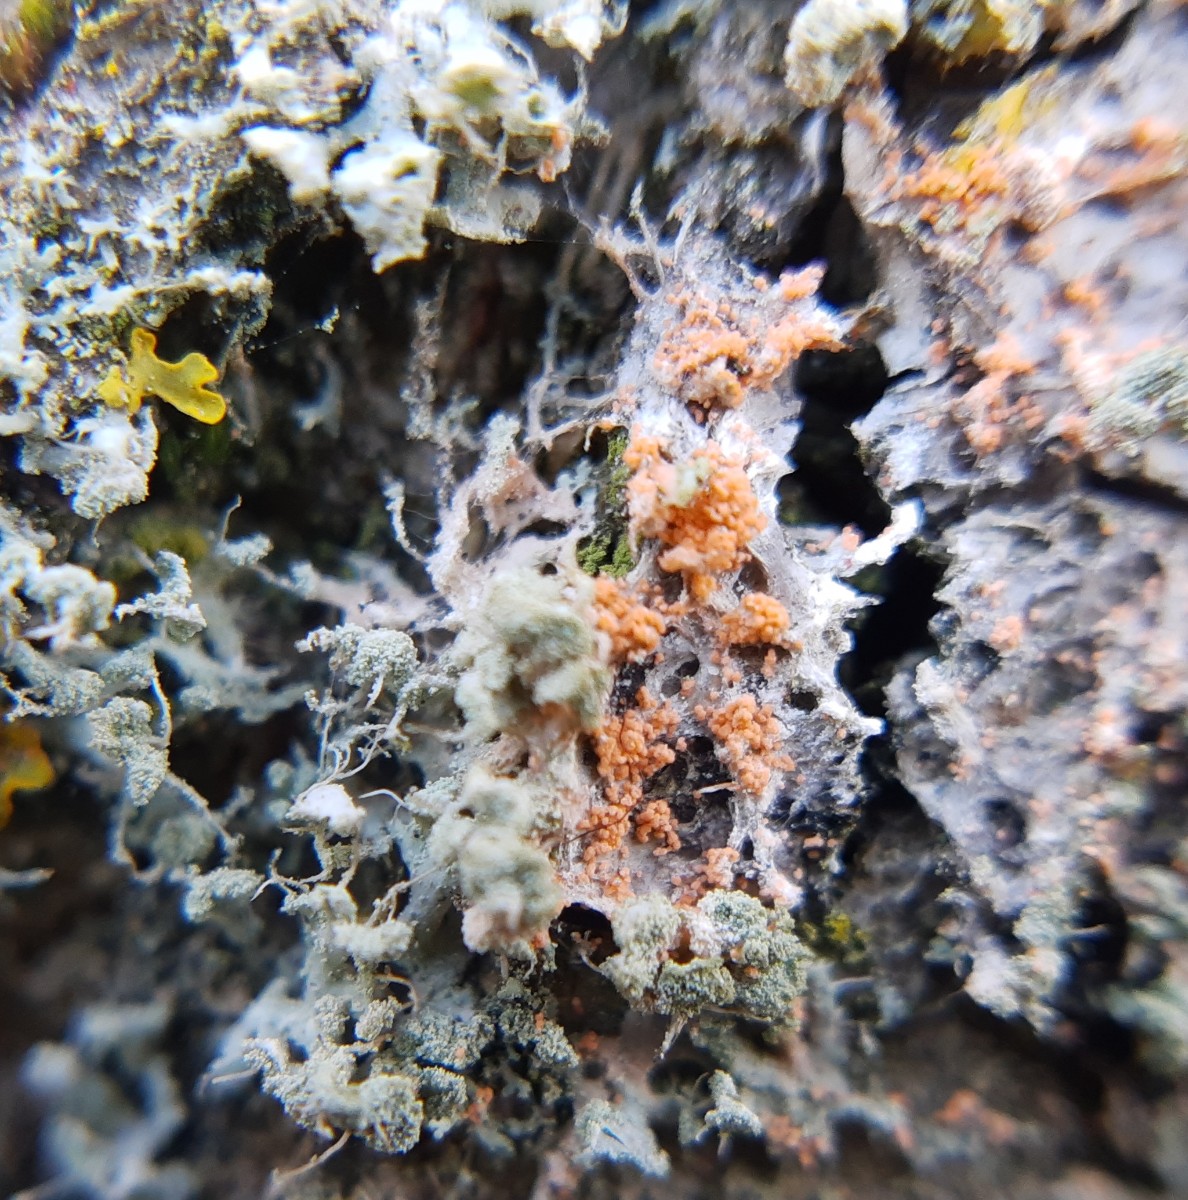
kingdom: Fungi
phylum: Basidiomycota
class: Agaricomycetes
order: Corticiales
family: Corticiaceae
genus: Erythricium
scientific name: Erythricium aurantiacum
